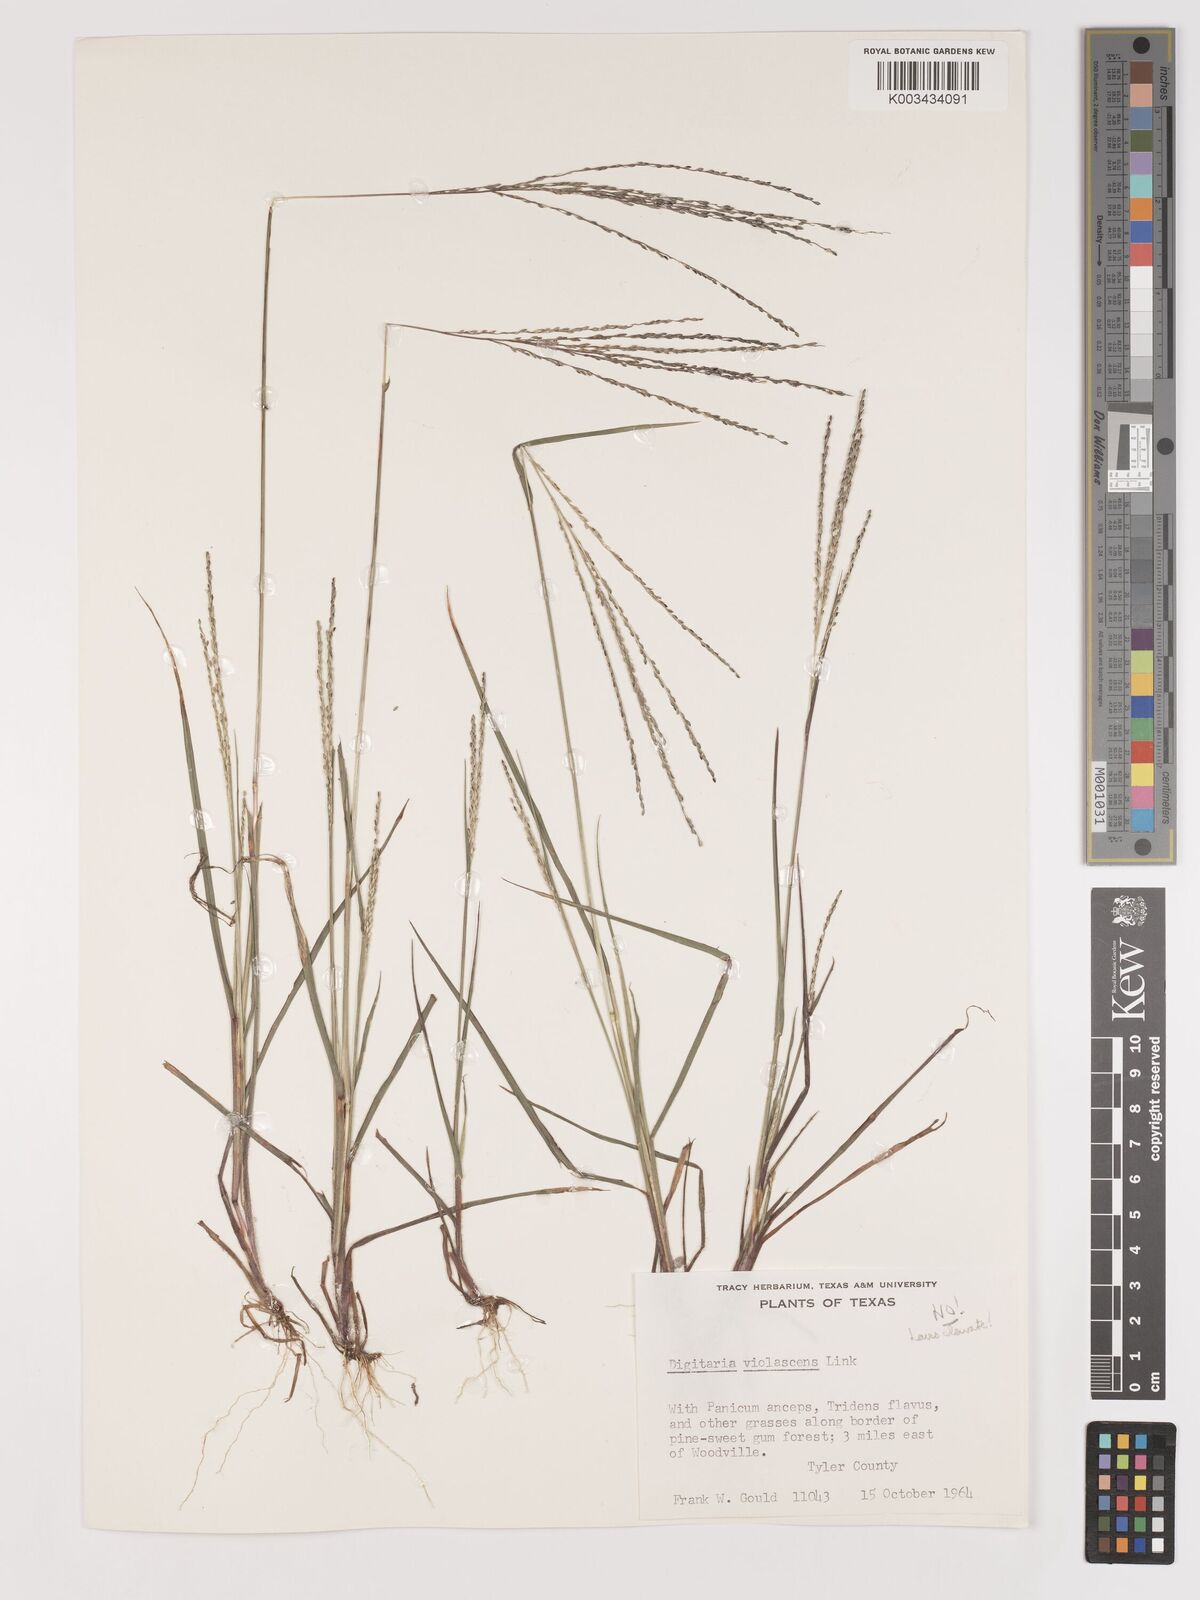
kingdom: Plantae
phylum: Tracheophyta
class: Liliopsida
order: Poales
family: Poaceae
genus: Digitaria
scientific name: Digitaria spec
